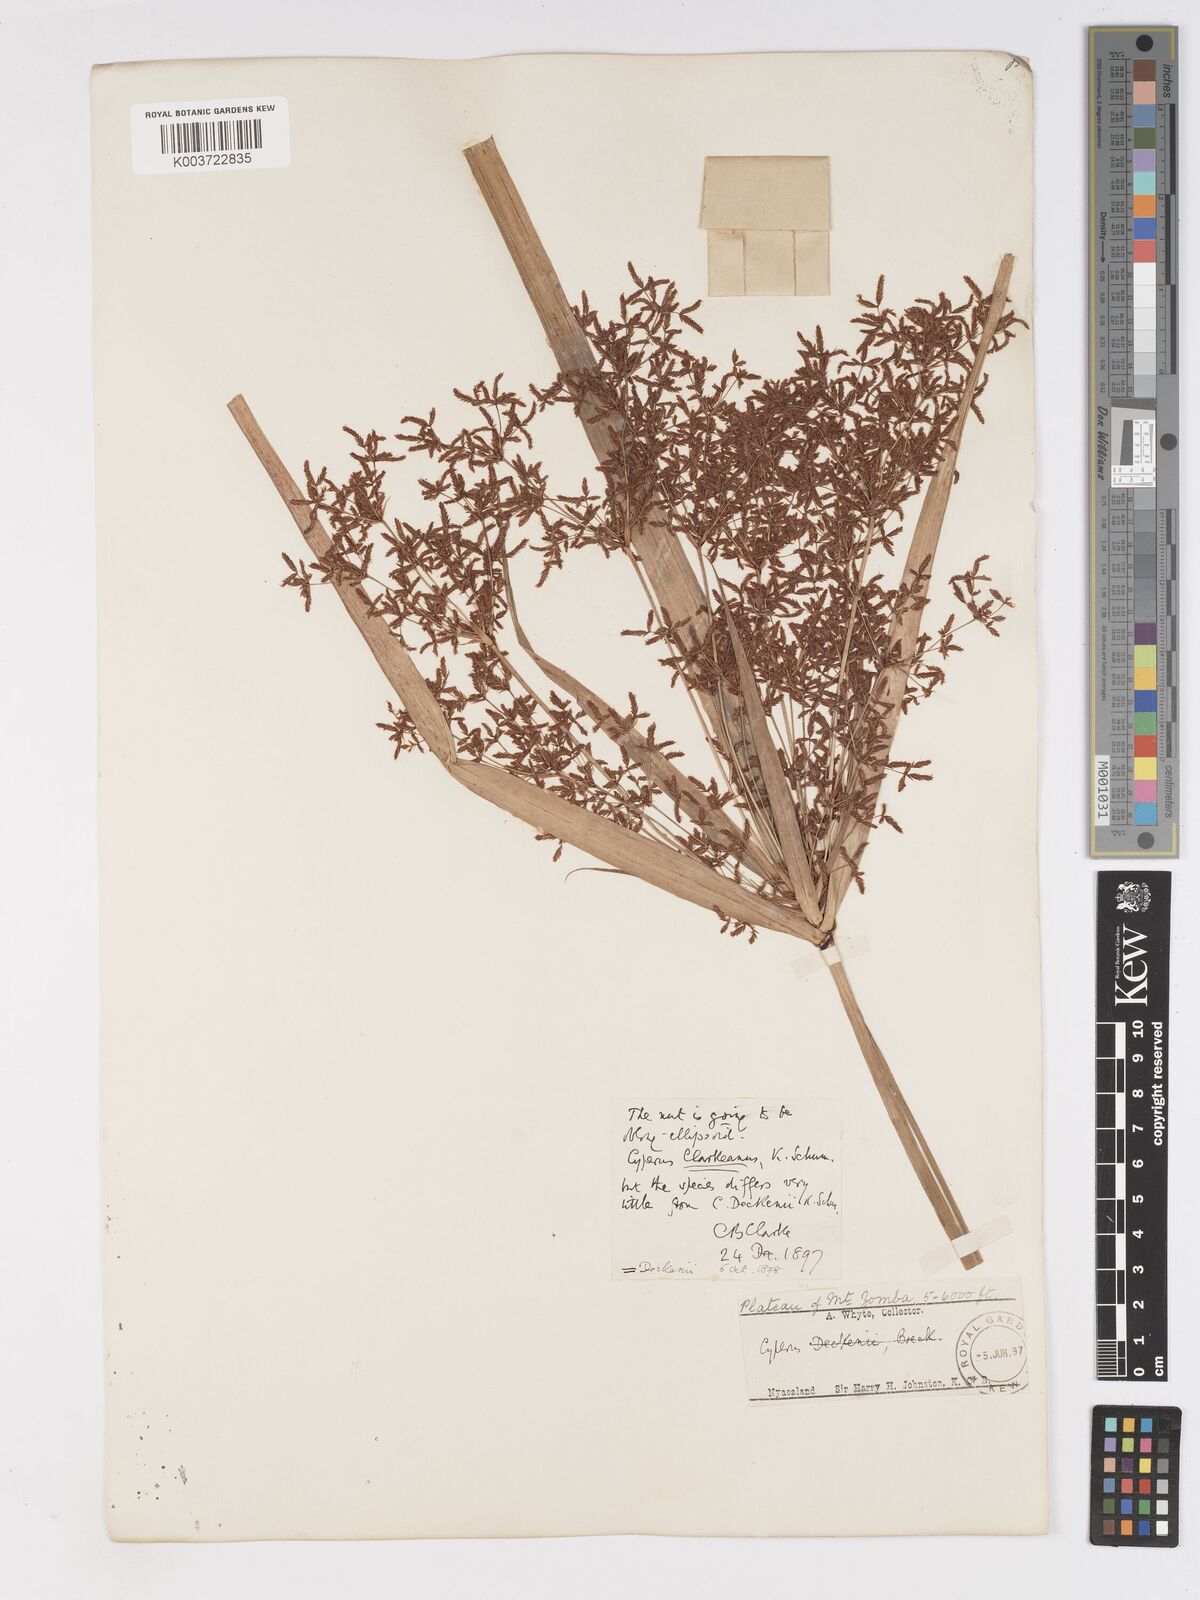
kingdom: Plantae
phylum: Tracheophyta
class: Liliopsida
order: Poales
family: Cyperaceae
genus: Cyperus
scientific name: Cyperus glaucophyllus
